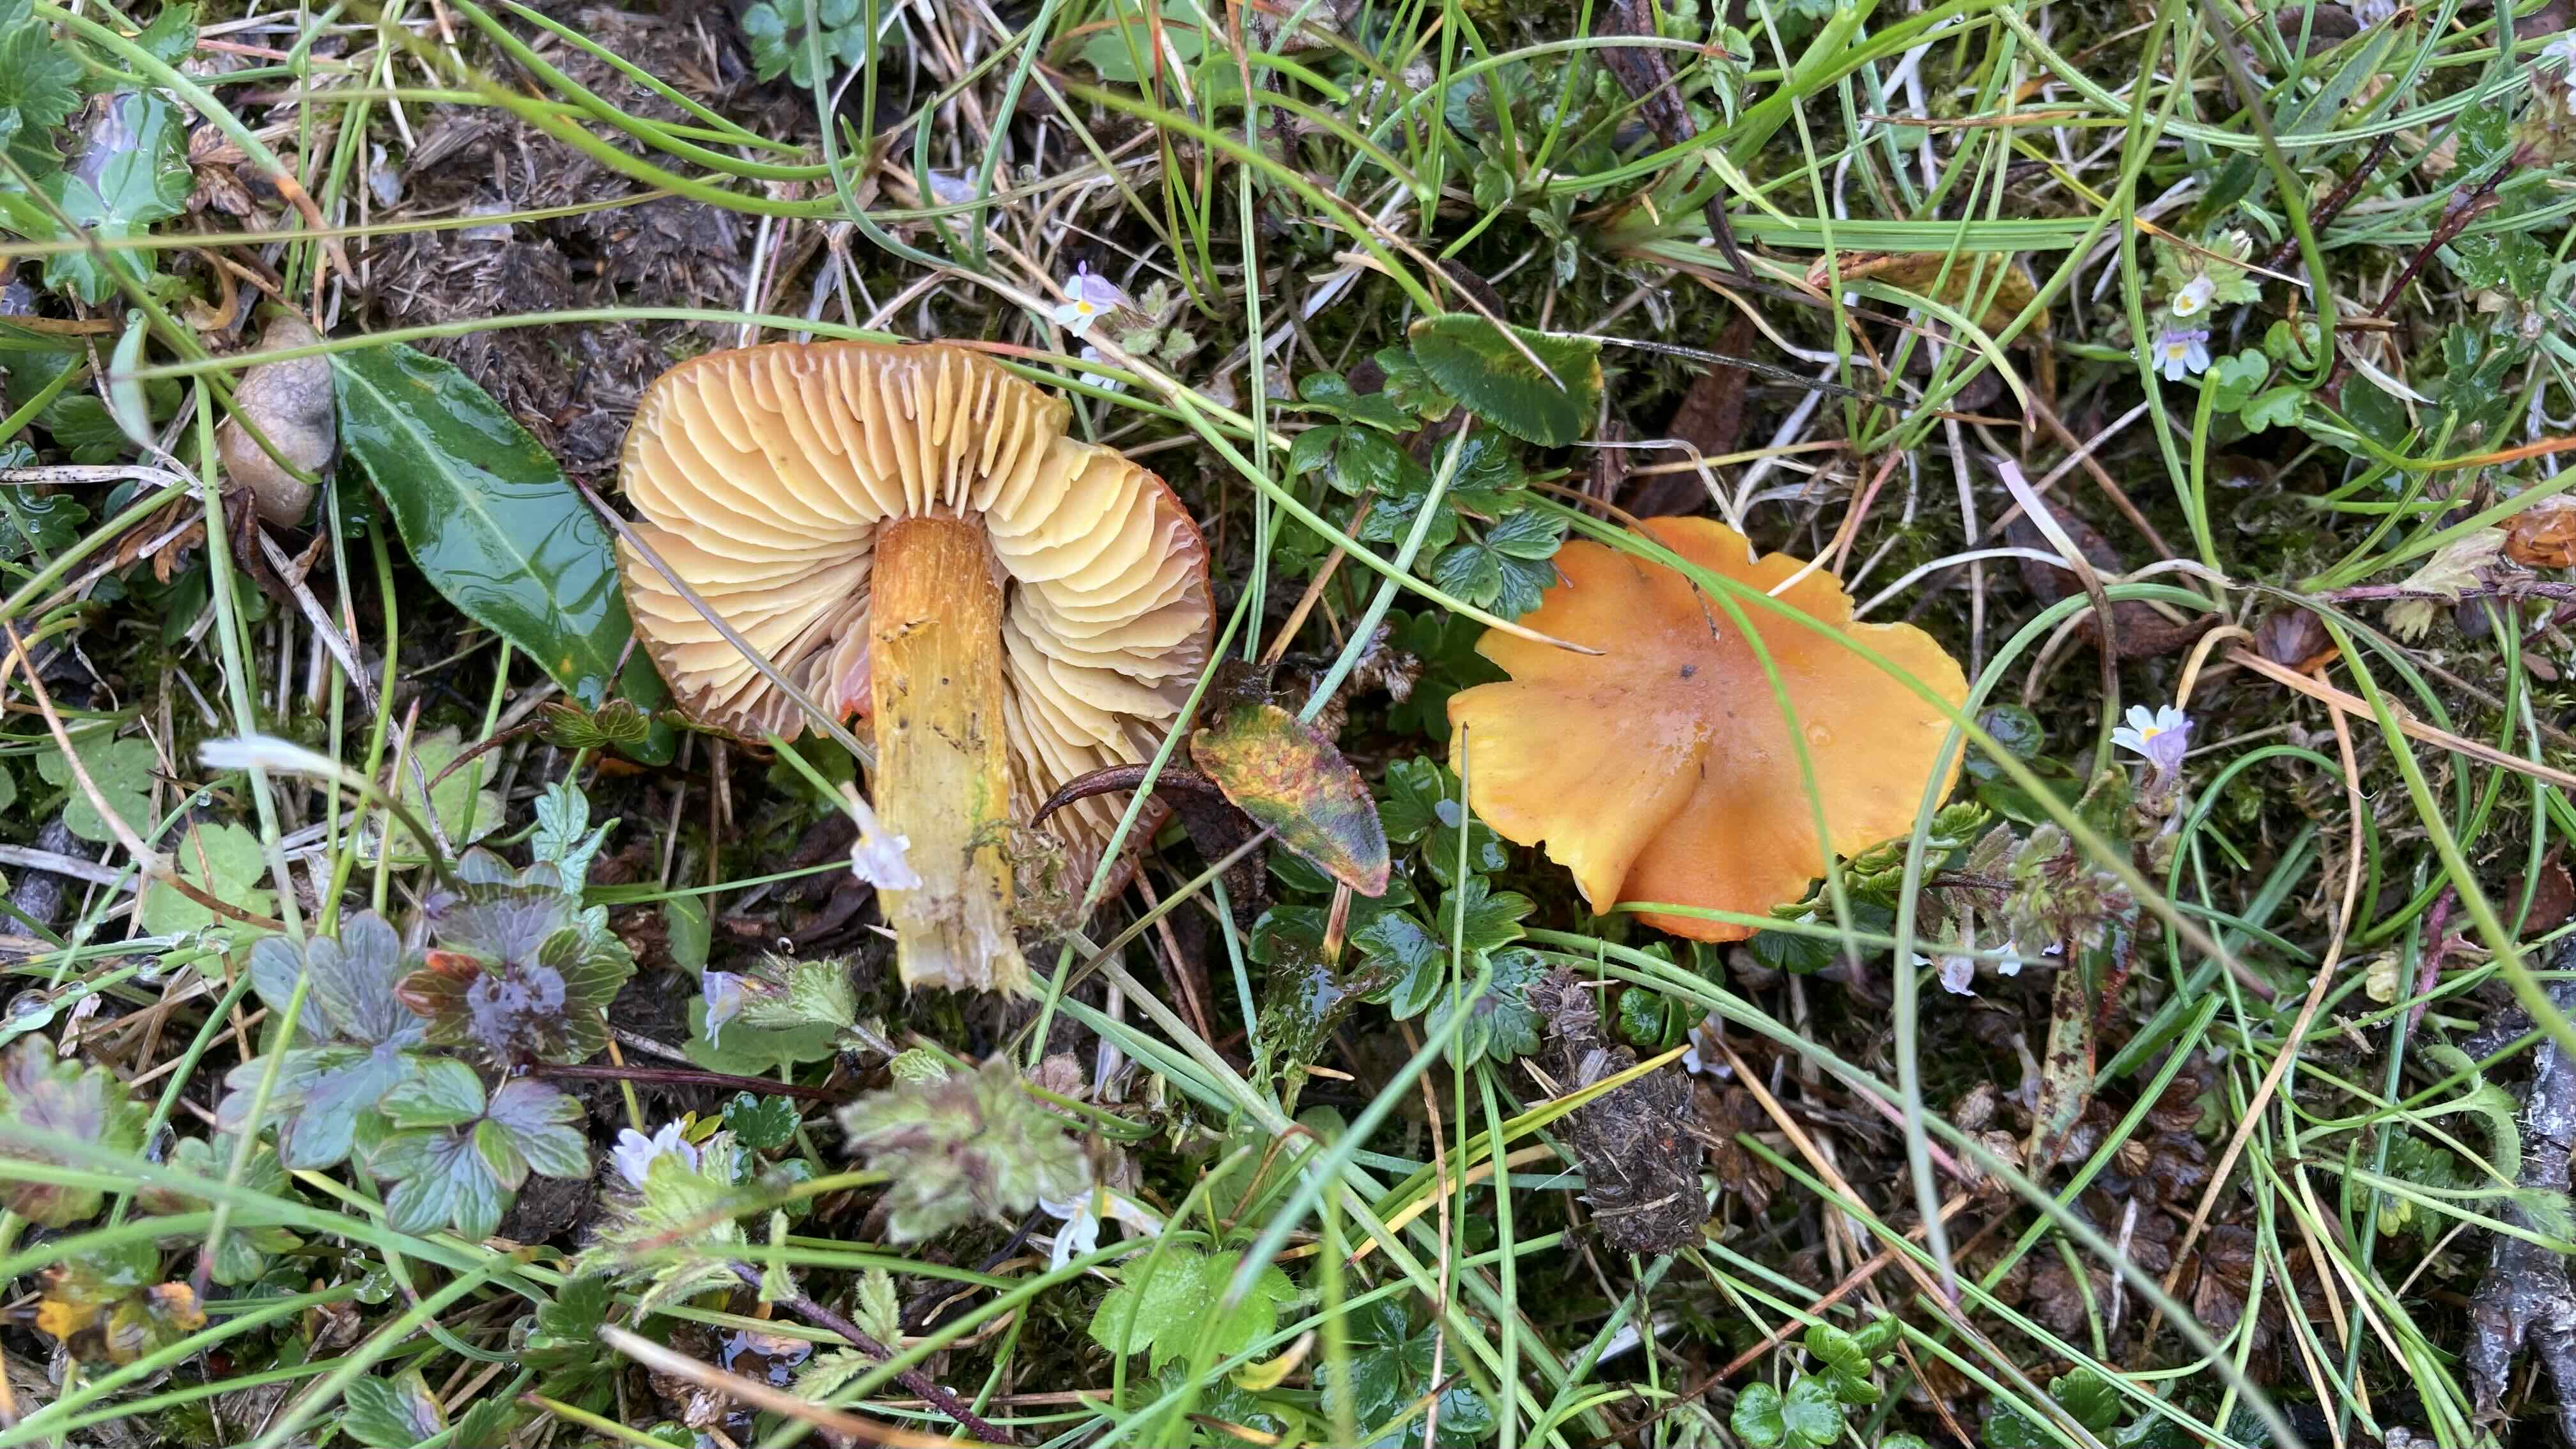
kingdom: Fungi
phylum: Basidiomycota
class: Agaricomycetes
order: Agaricales
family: Hygrophoraceae
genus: Hygrocybe
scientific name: Hygrocybe conica
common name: kegle-vokshat
